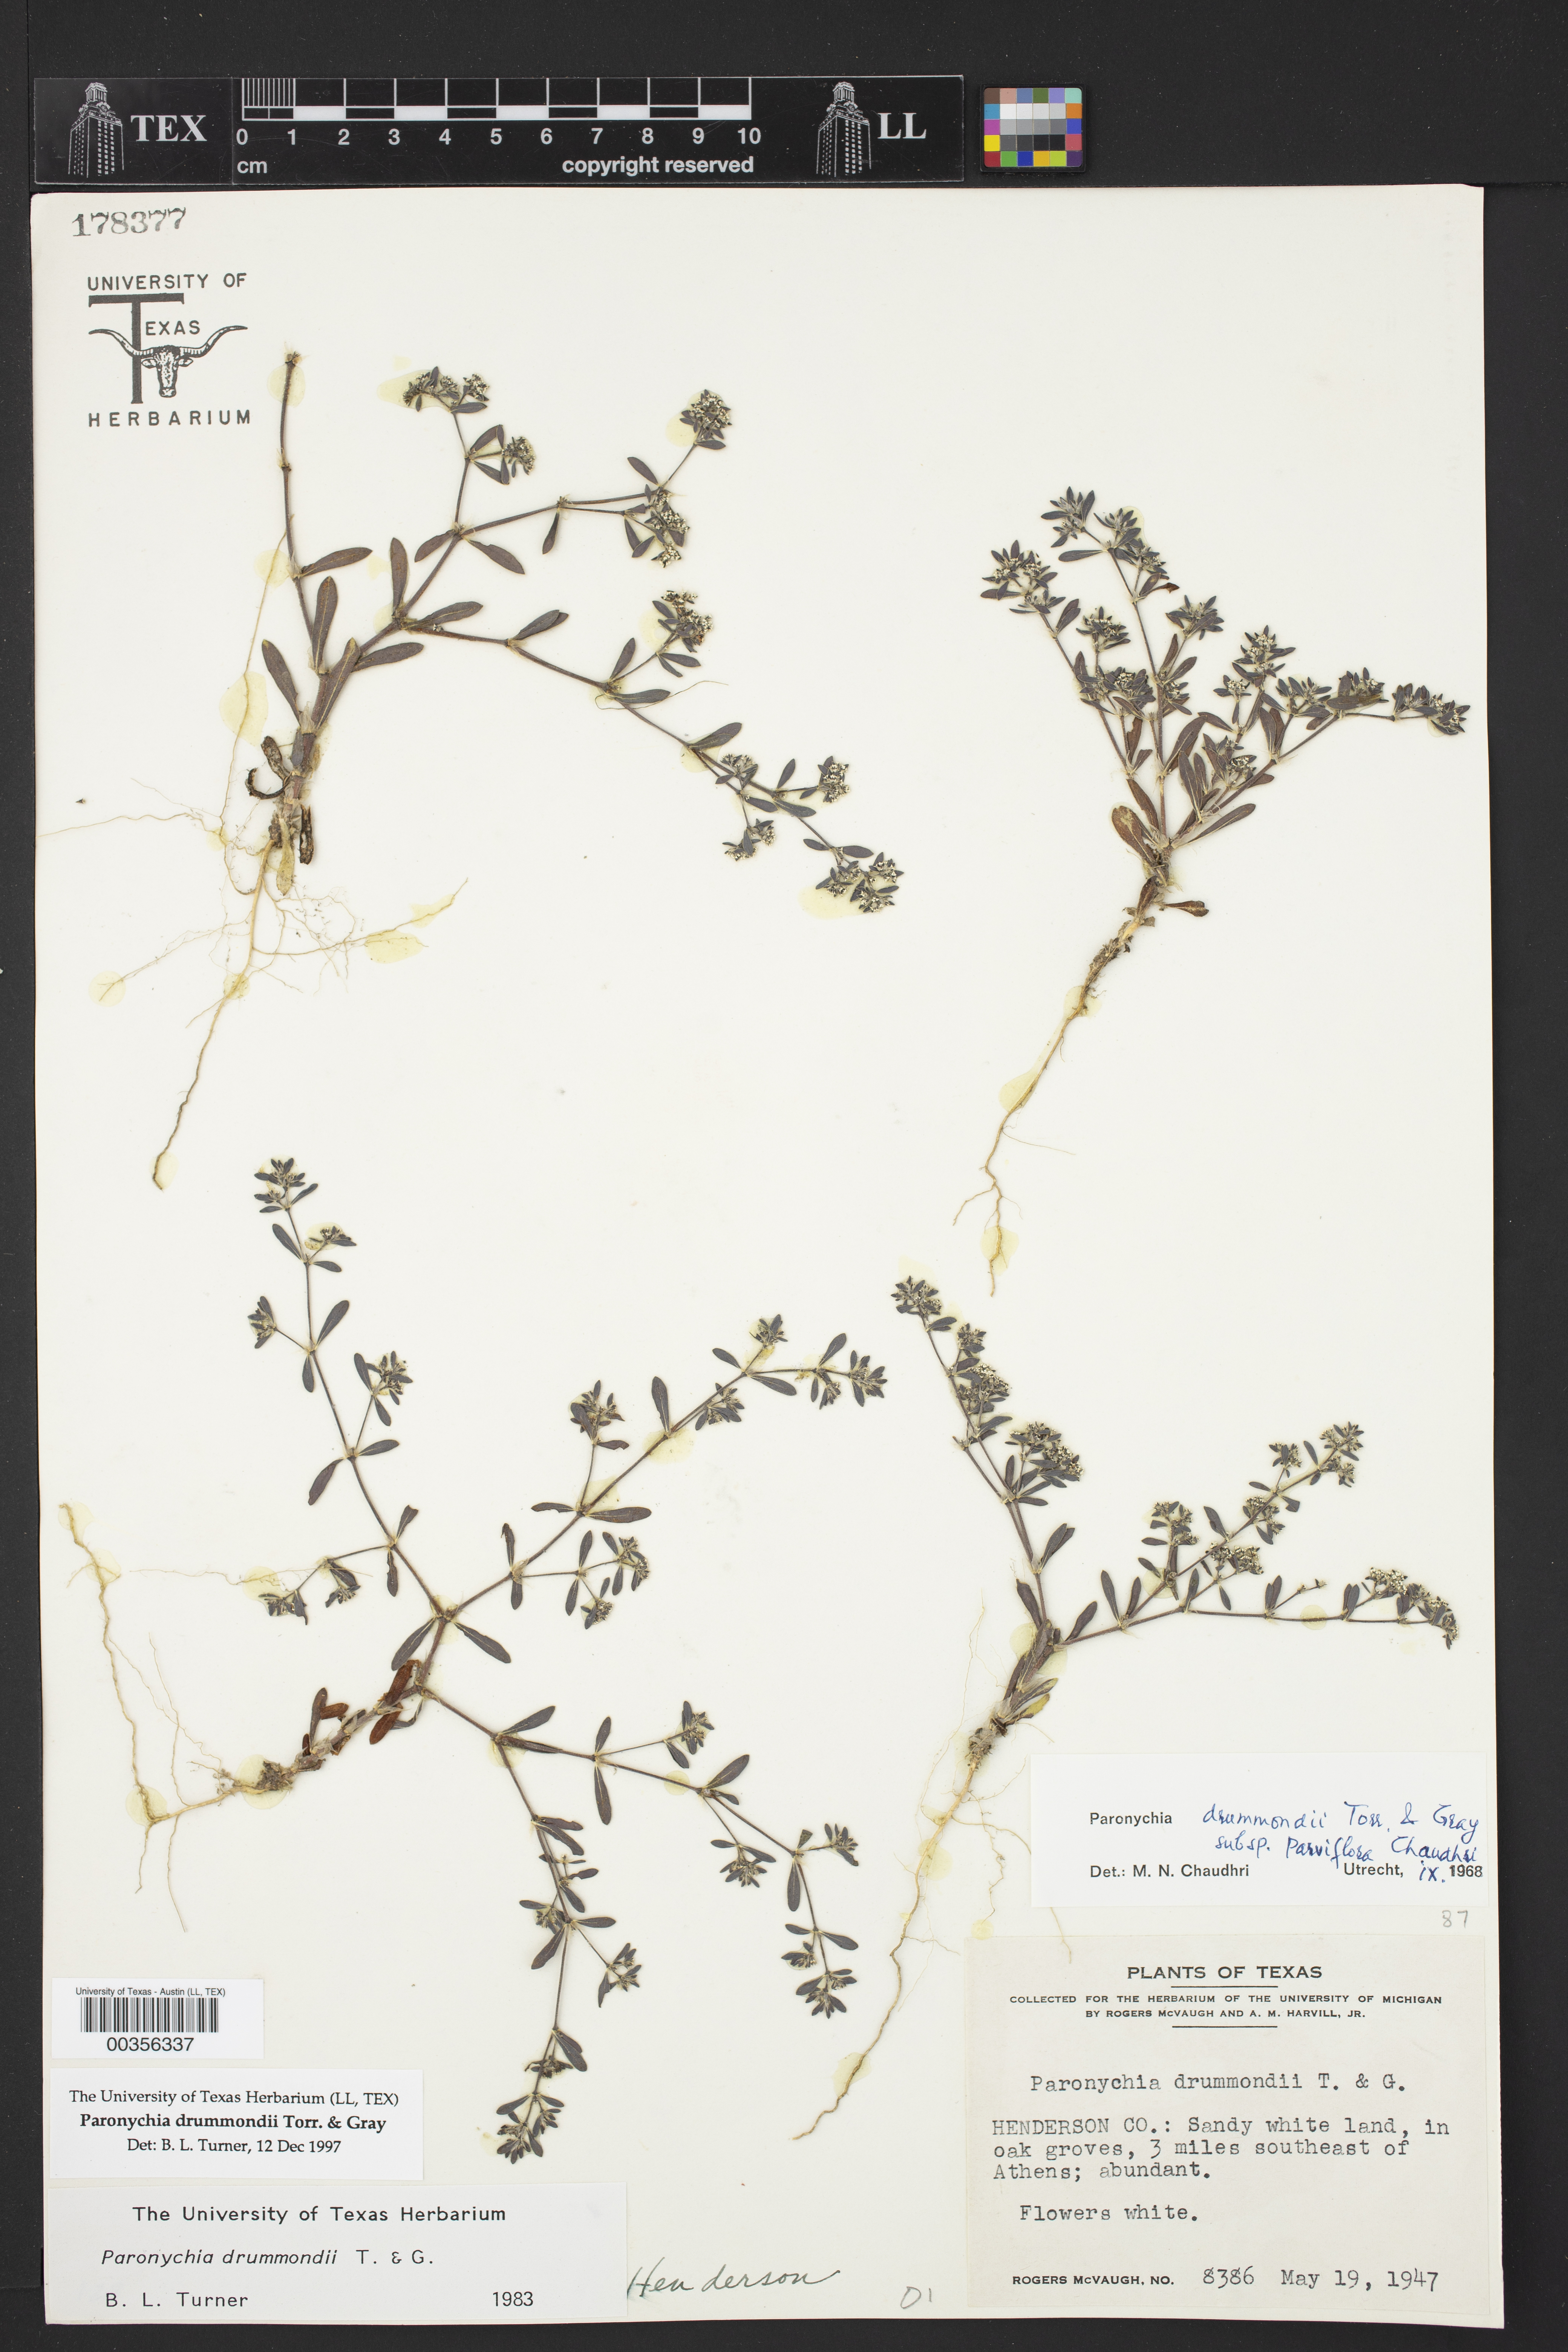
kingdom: Plantae
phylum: Tracheophyta
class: Magnoliopsida
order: Caryophyllales
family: Caryophyllaceae
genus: Paronychia
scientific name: Paronychia drummondii
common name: Drummond's nailwort
